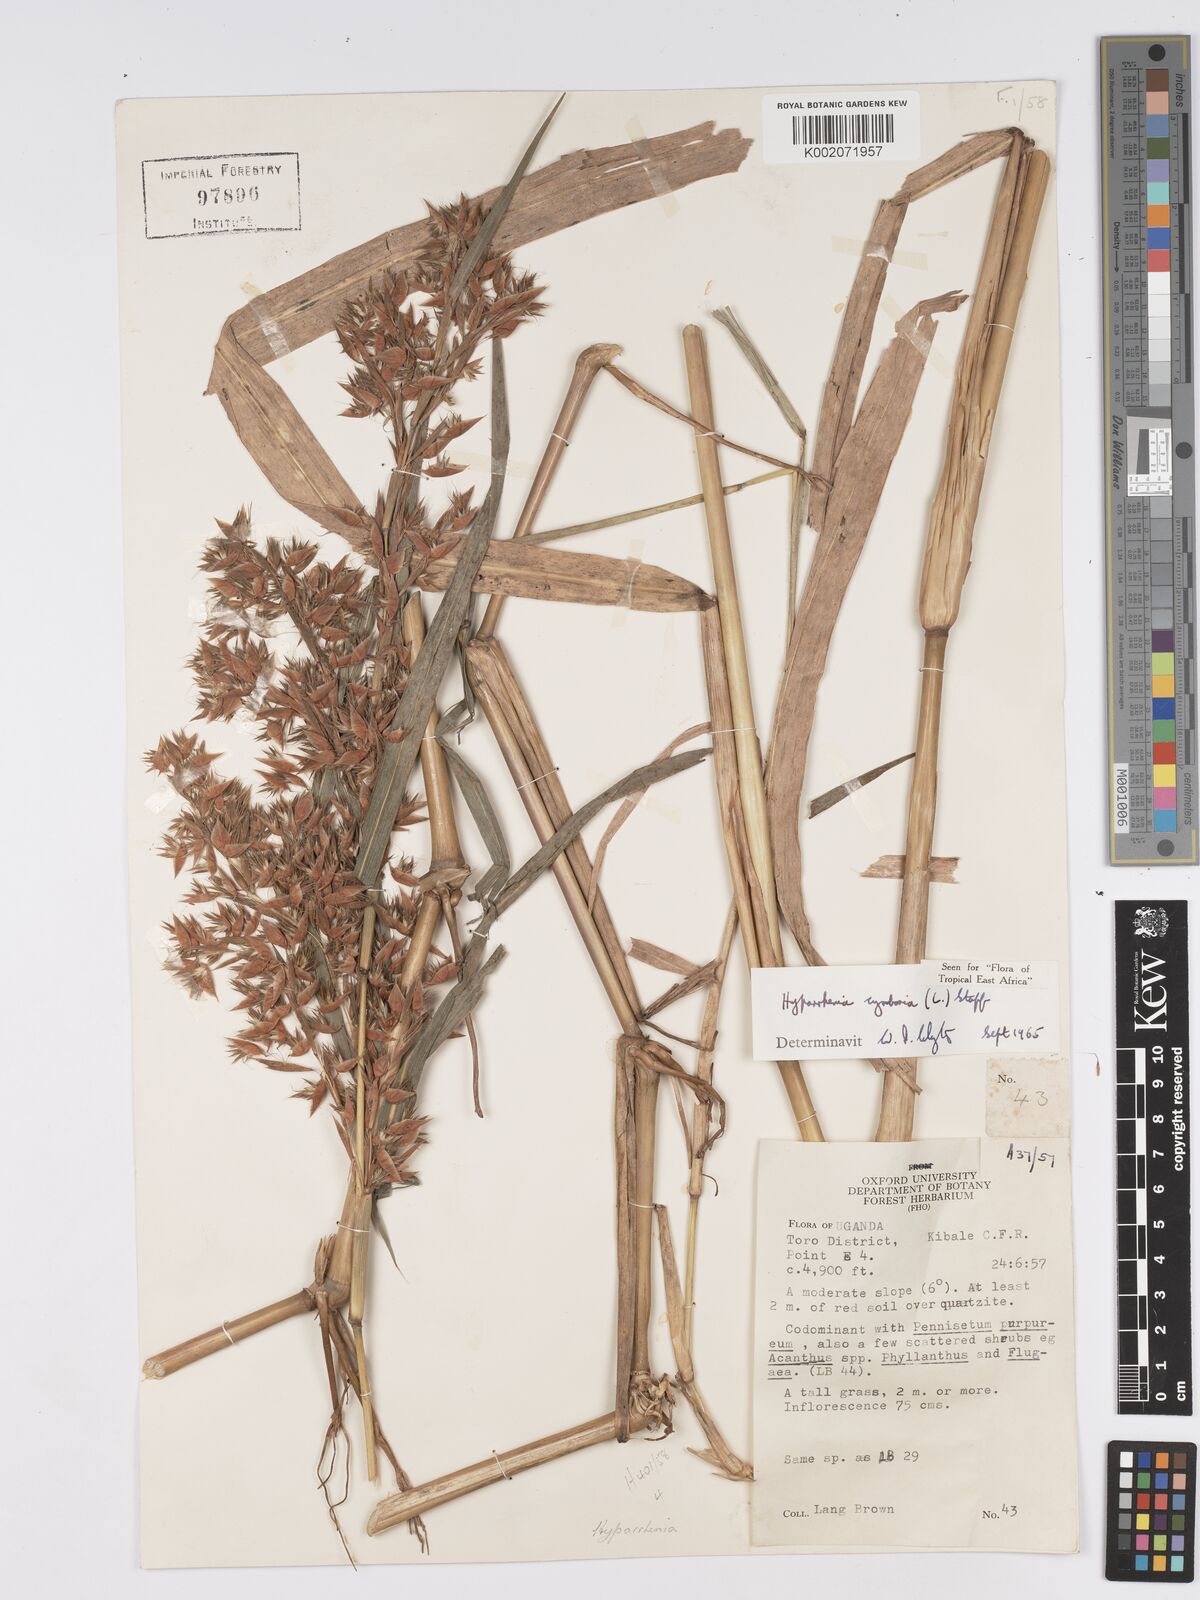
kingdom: Plantae
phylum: Tracheophyta
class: Liliopsida
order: Poales
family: Poaceae
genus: Hyparrhenia
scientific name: Hyparrhenia cymbaria
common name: Boat thatching grass
